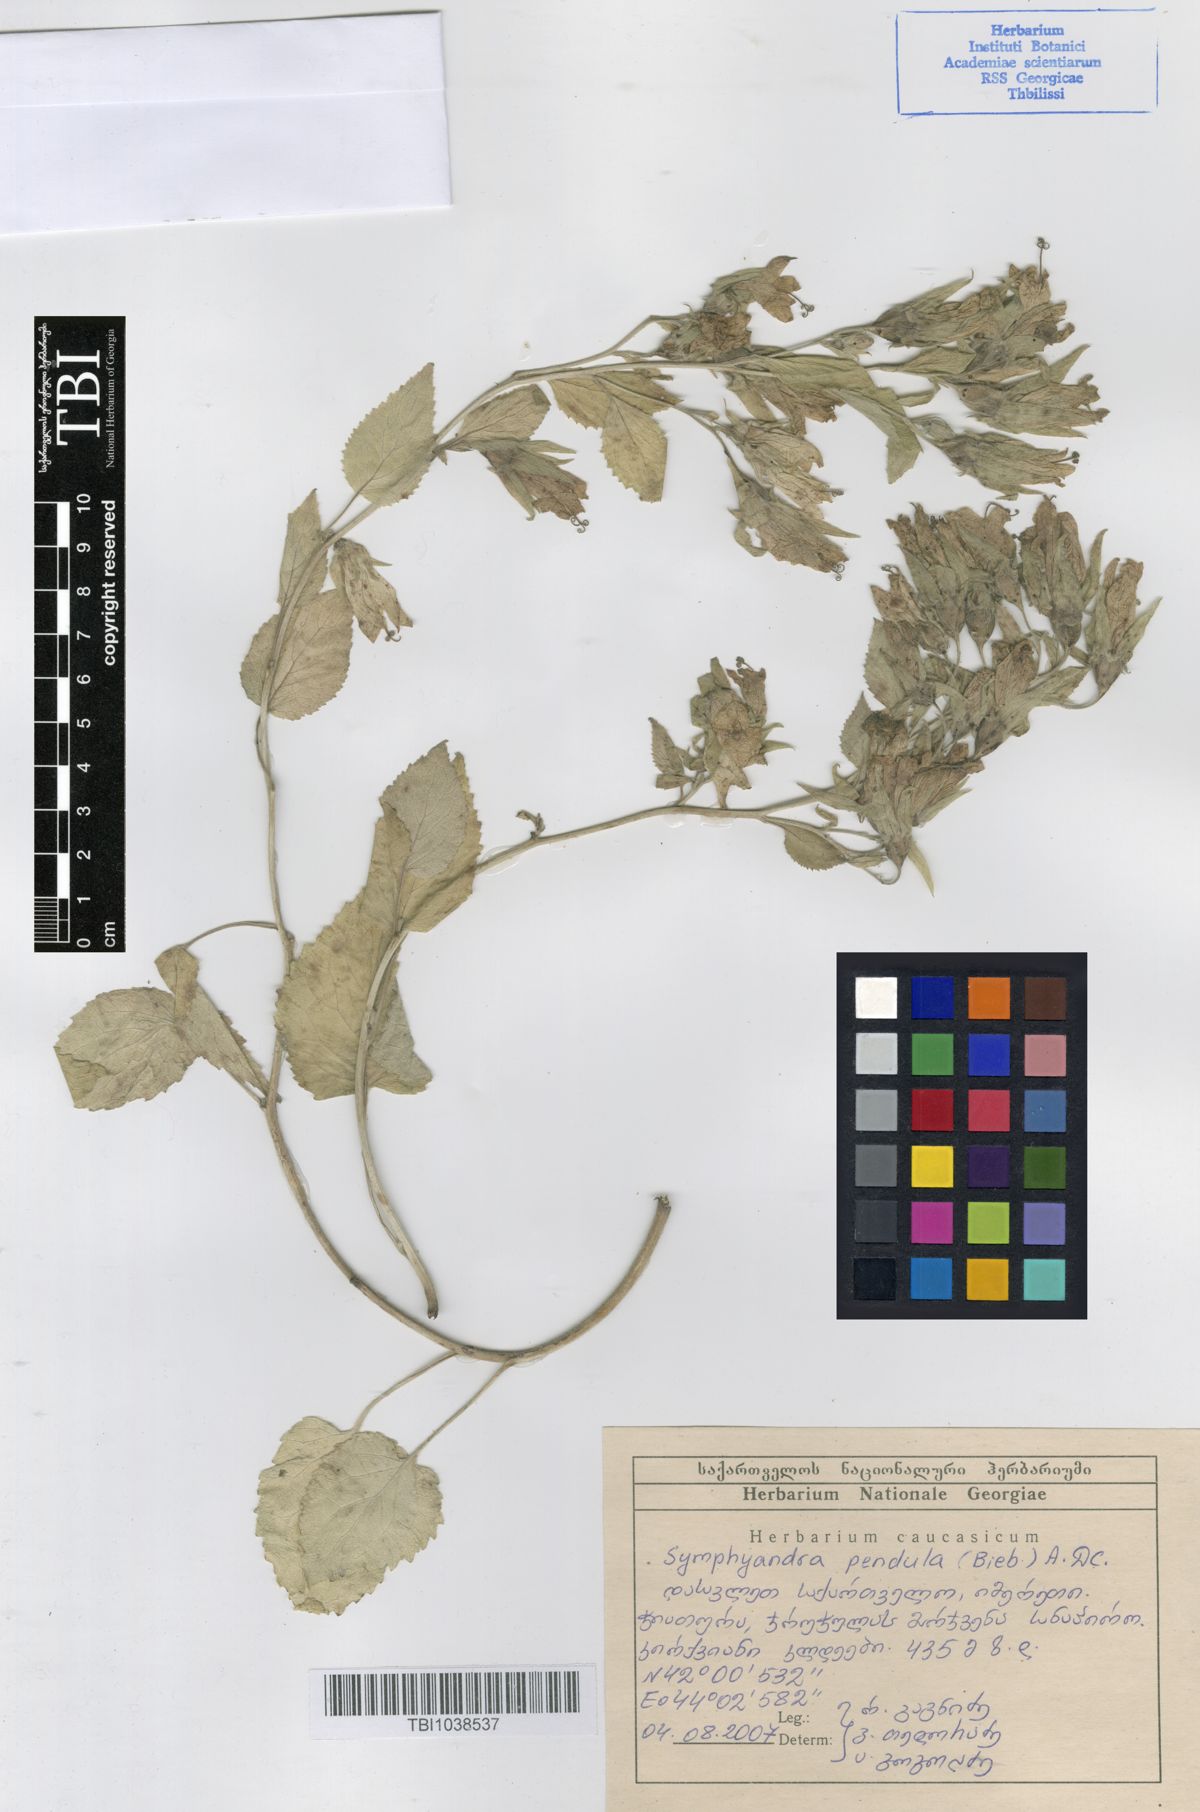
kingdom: Plantae
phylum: Tracheophyta
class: Magnoliopsida
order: Asterales
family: Campanulaceae
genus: Campanula
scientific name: Campanula pendula
